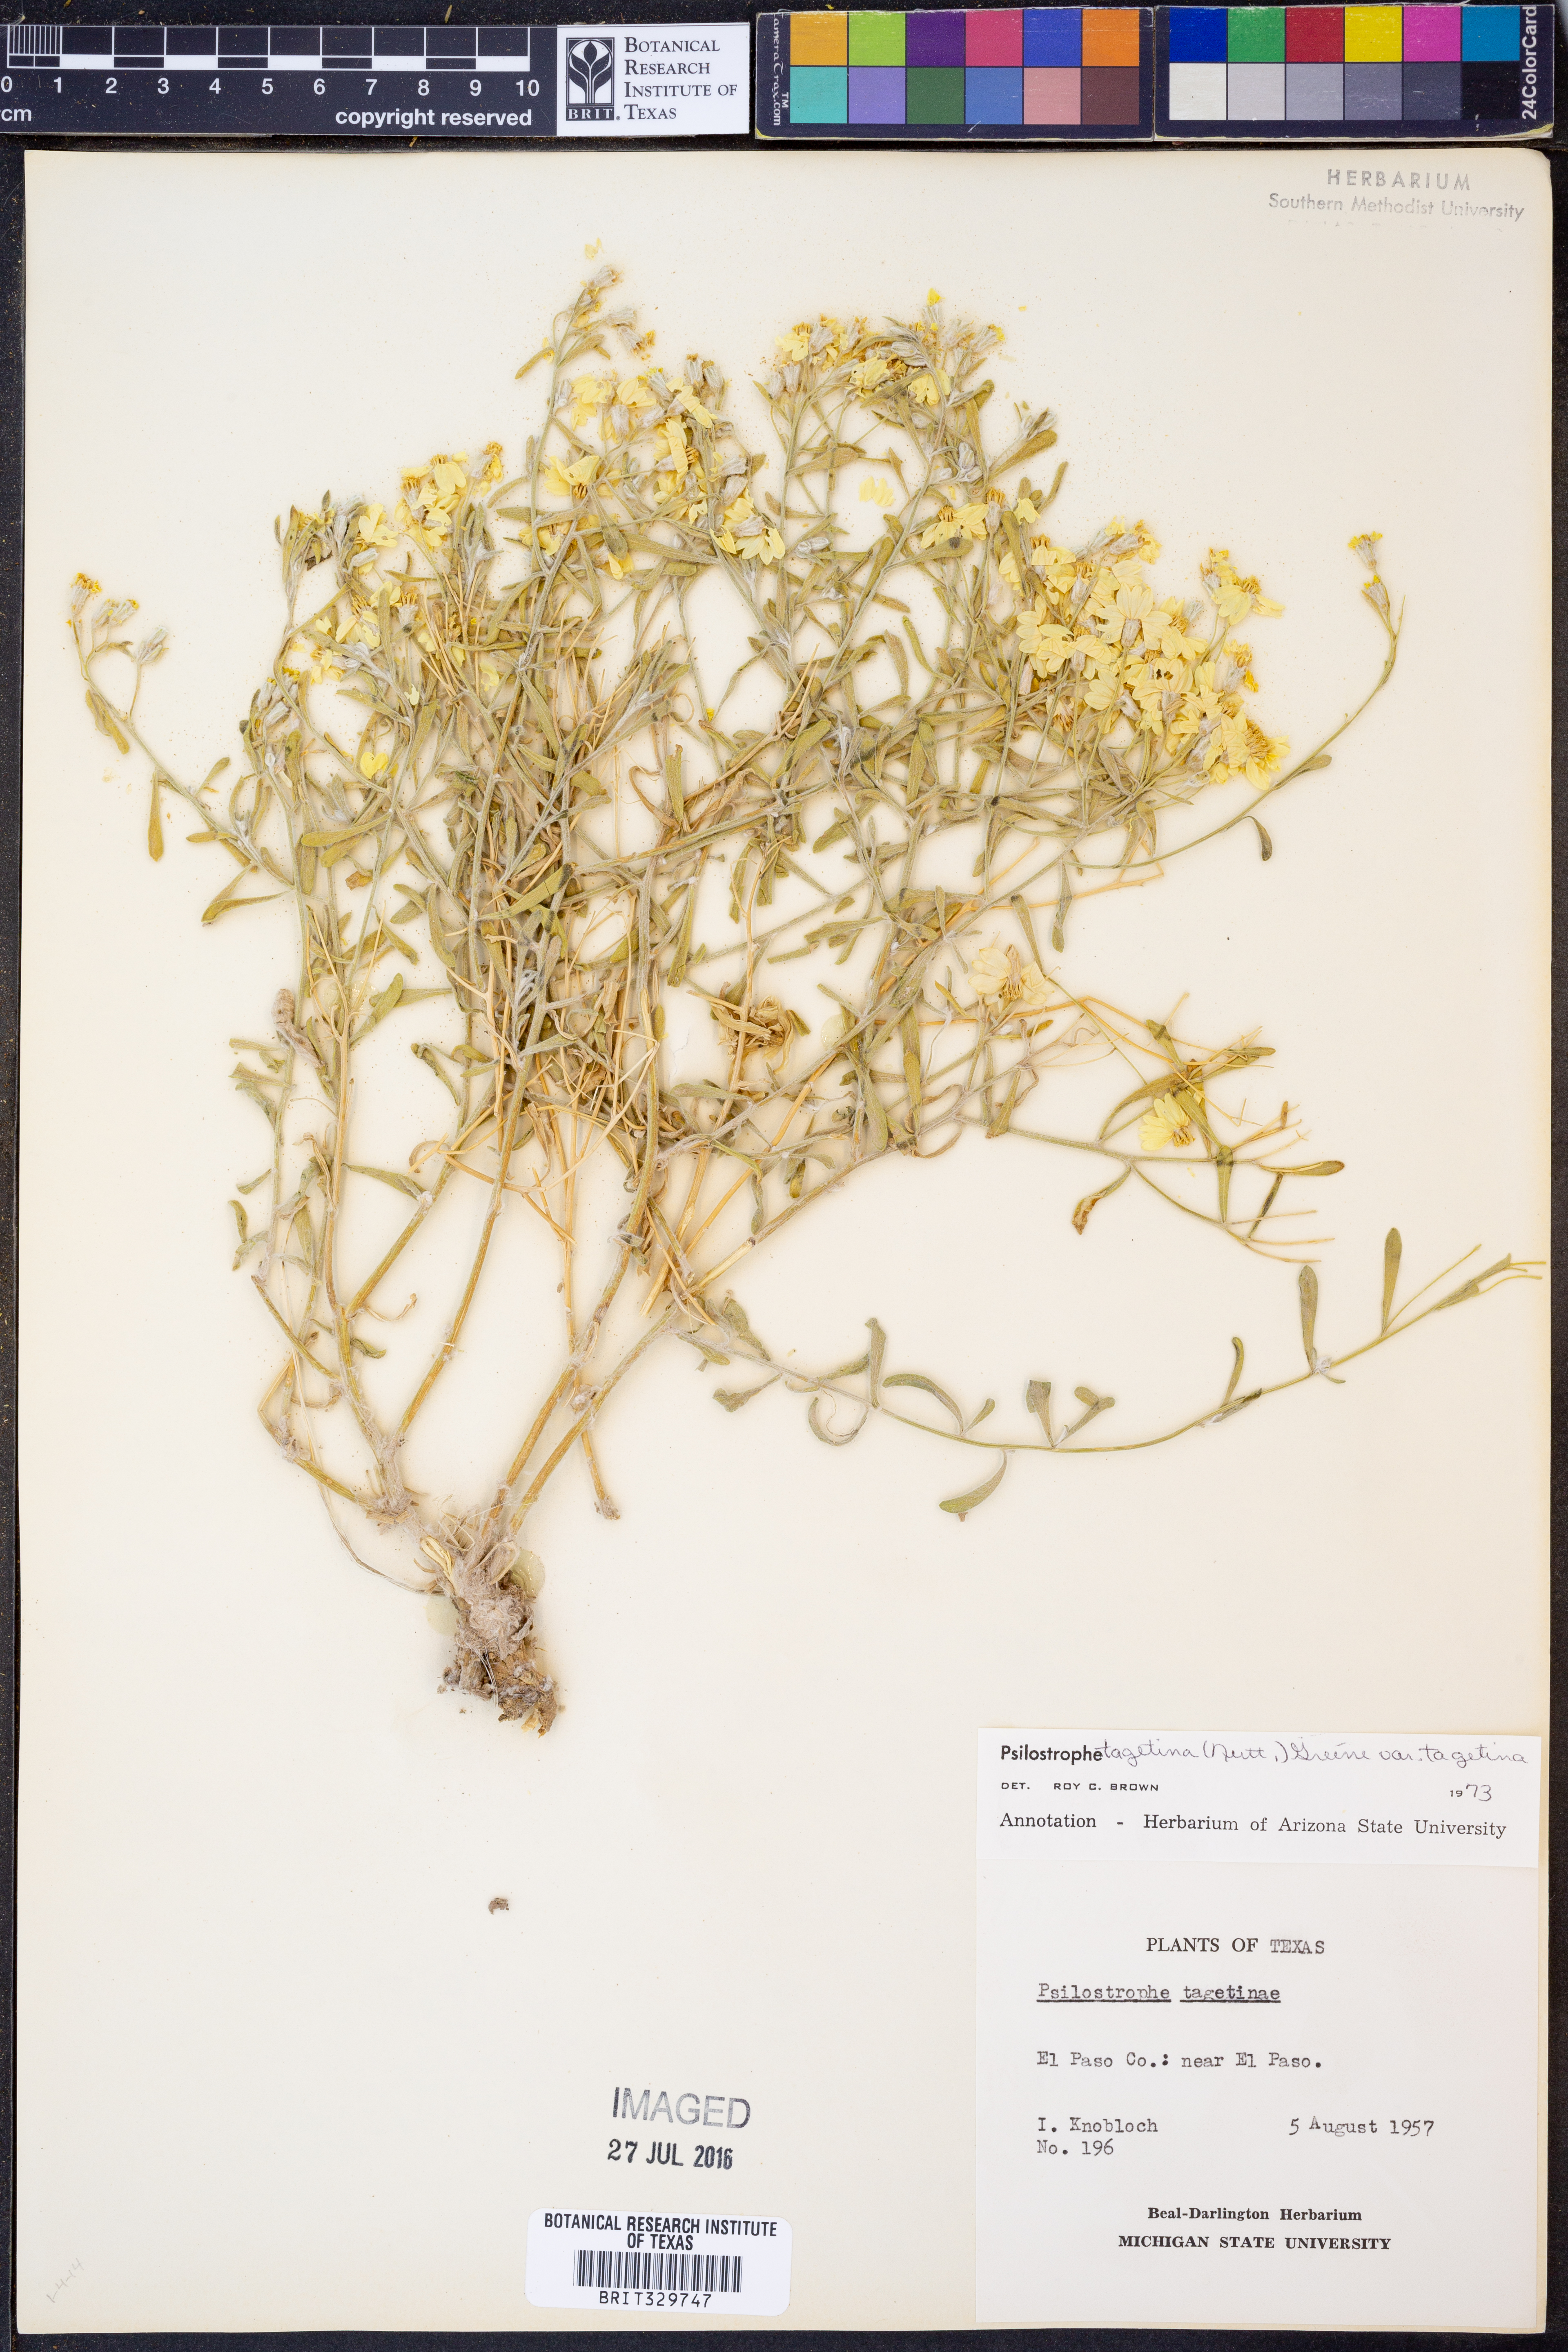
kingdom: Plantae
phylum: Tracheophyta
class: Magnoliopsida
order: Asterales
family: Asteraceae
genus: Psilostrophe
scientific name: Psilostrophe tagetina
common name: Marigold paper-flower
